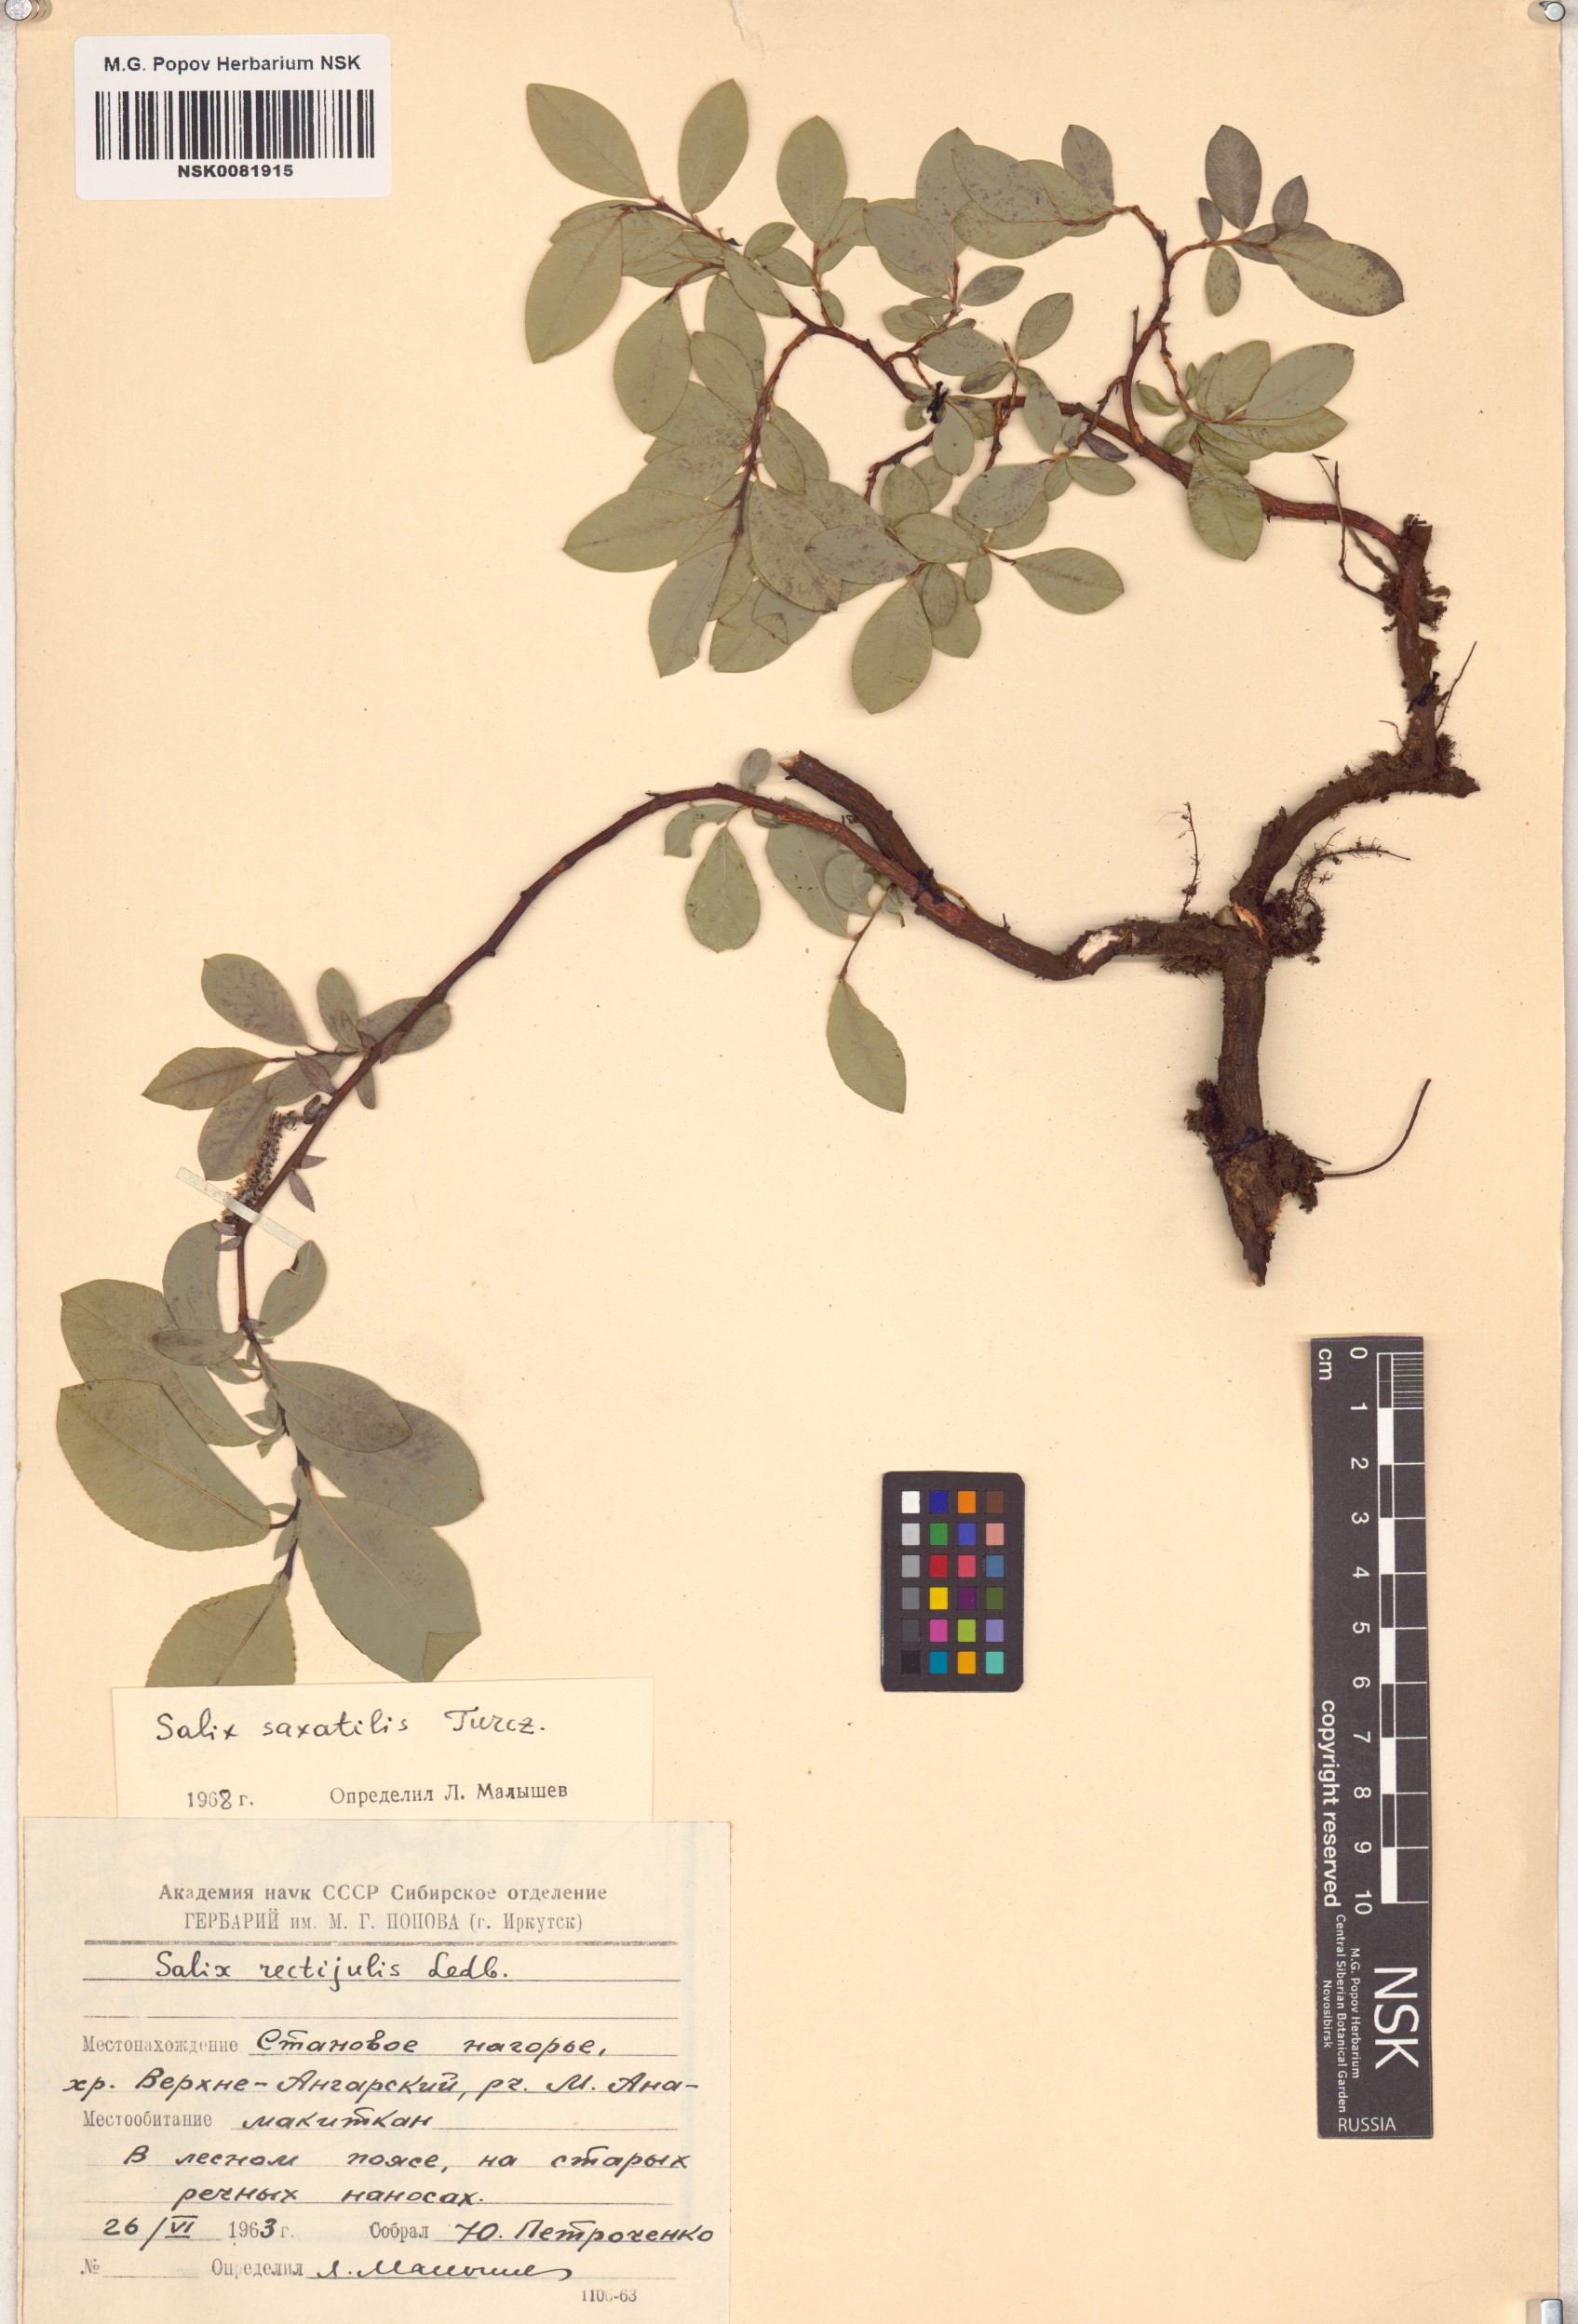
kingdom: Plantae
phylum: Tracheophyta
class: Magnoliopsida
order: Malpighiales
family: Salicaceae
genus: Salix
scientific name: Salix saxatilis
